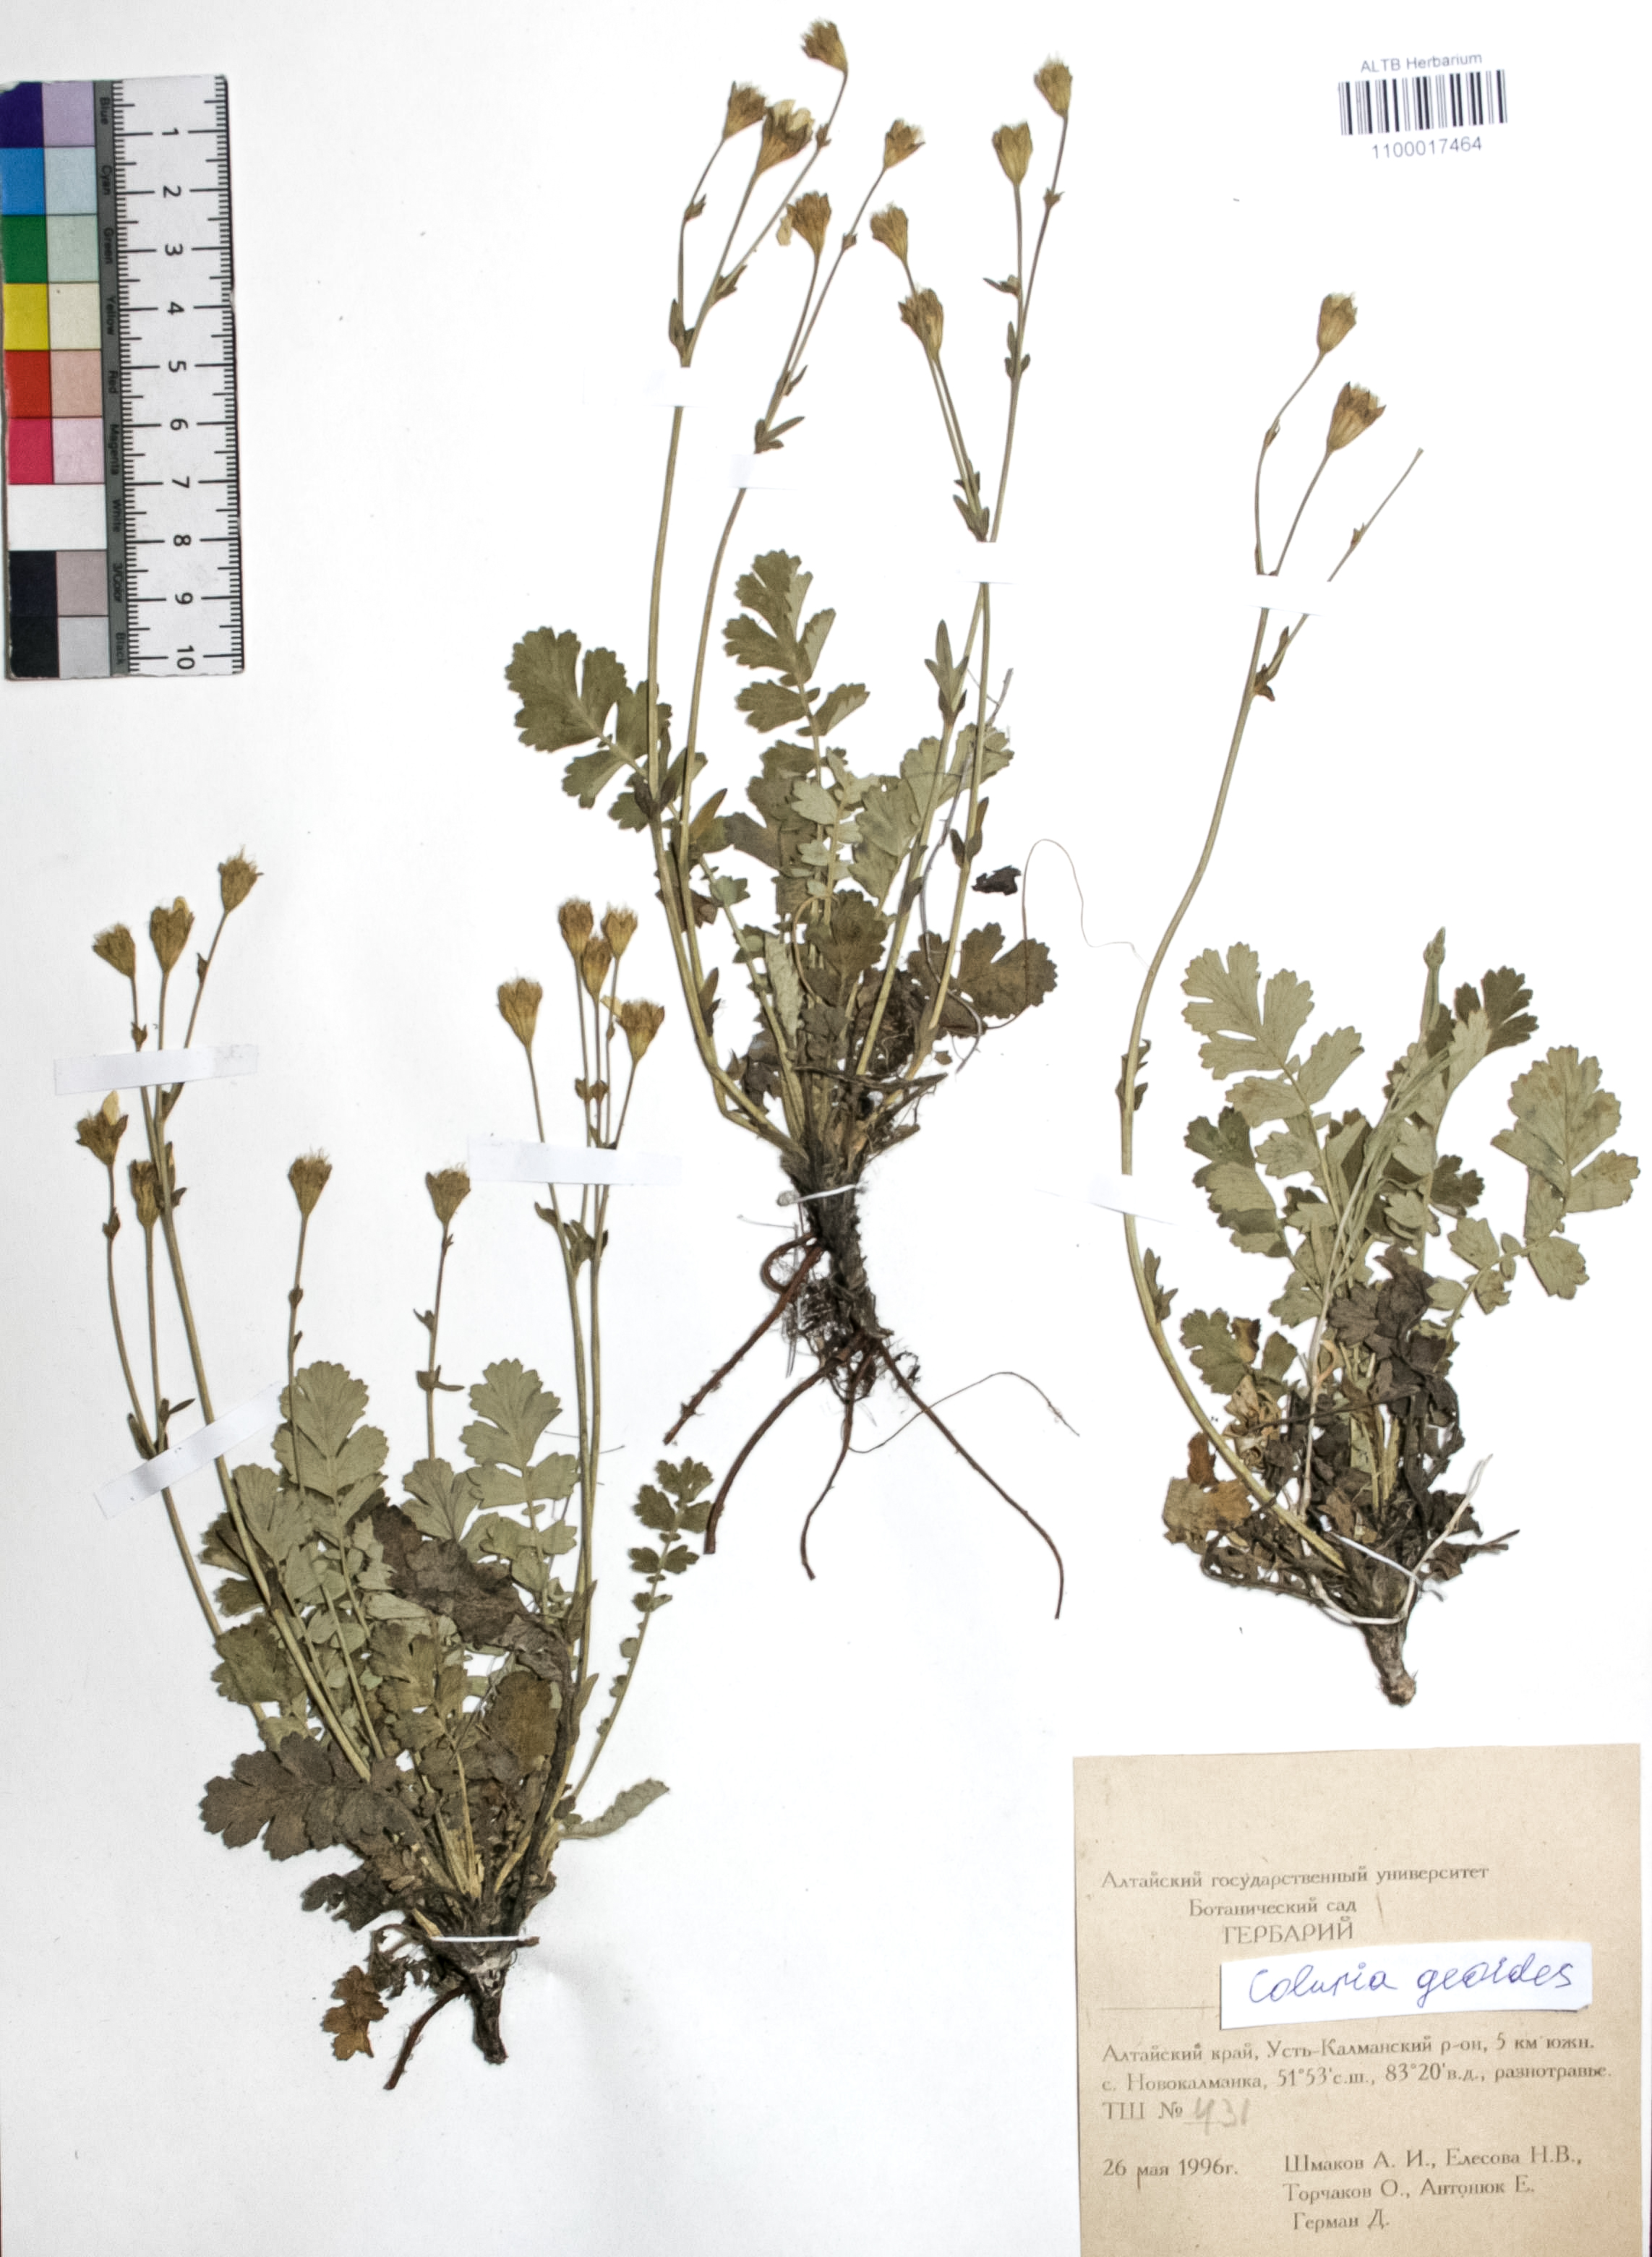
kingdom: Plantae
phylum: Tracheophyta
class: Magnoliopsida
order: Rosales
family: Rosaceae
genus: Geum
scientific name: Geum geoides
